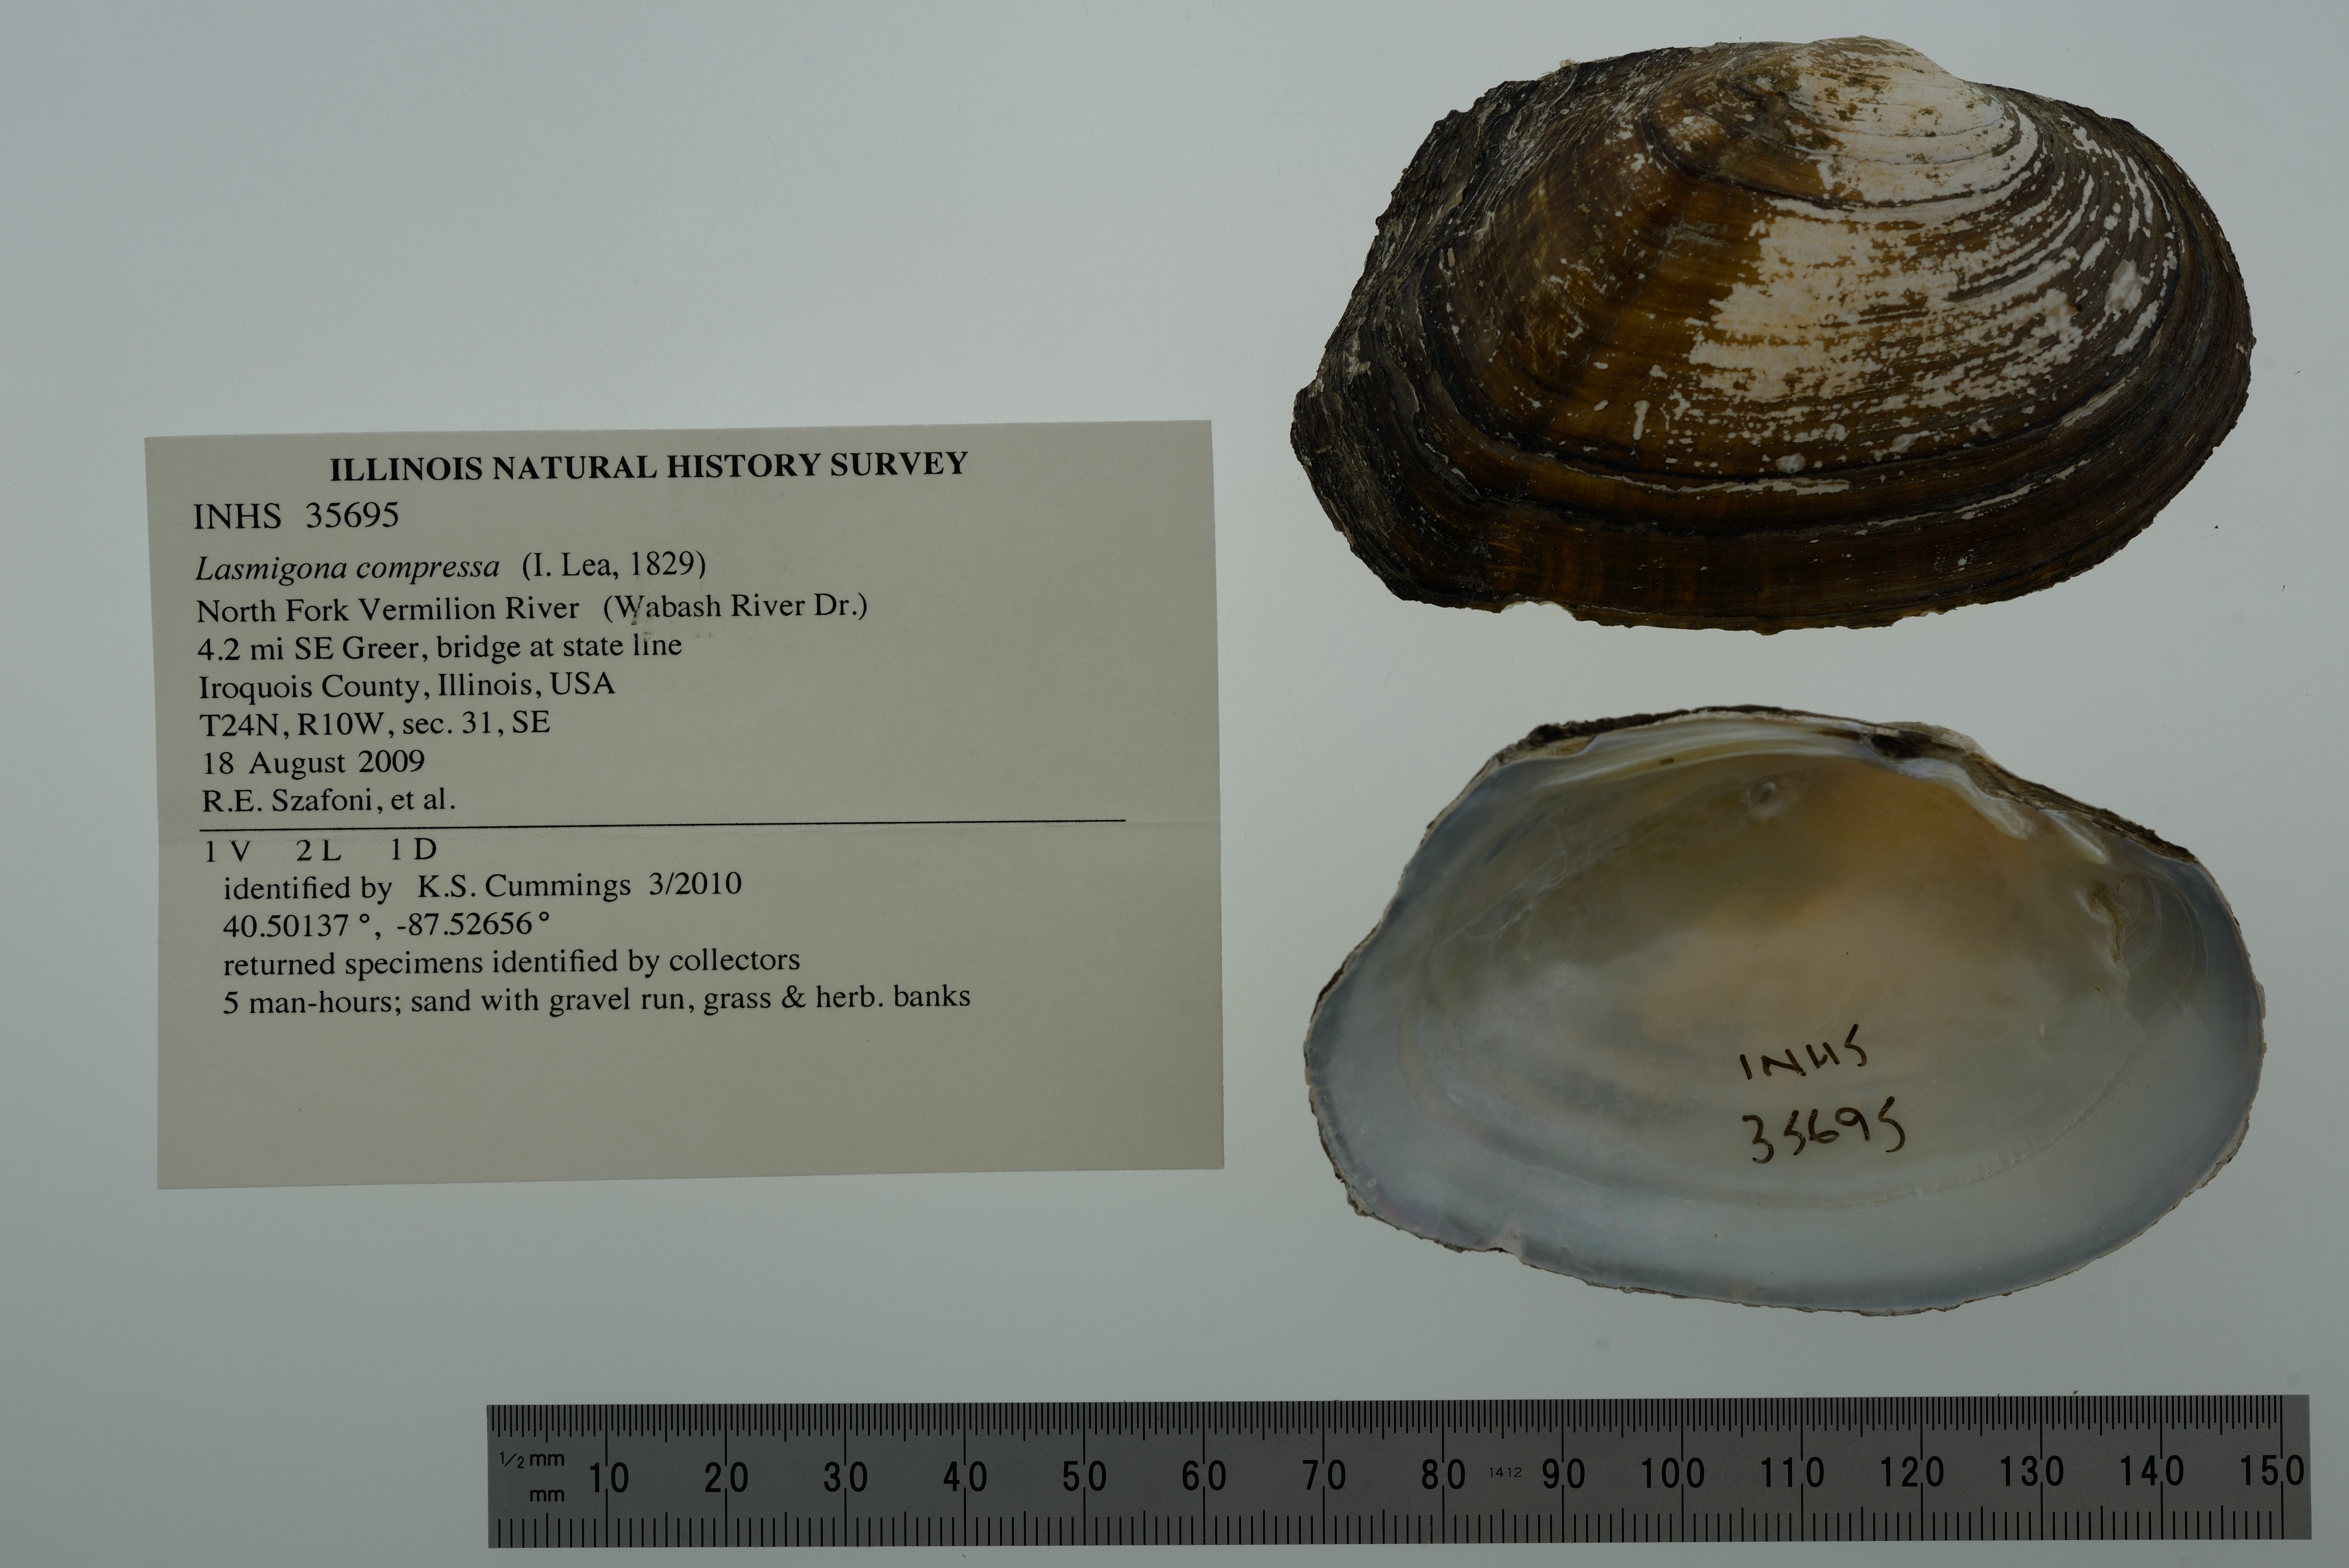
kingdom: Animalia
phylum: Mollusca
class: Bivalvia
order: Unionida
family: Unionidae
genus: Lasmigona
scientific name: Lasmigona compressa
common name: Creek heelsplitter
